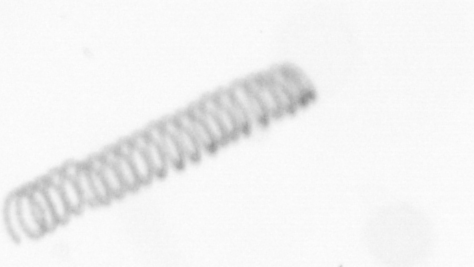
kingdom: Chromista
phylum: Ochrophyta
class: Bacillariophyceae
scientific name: Bacillariophyceae
